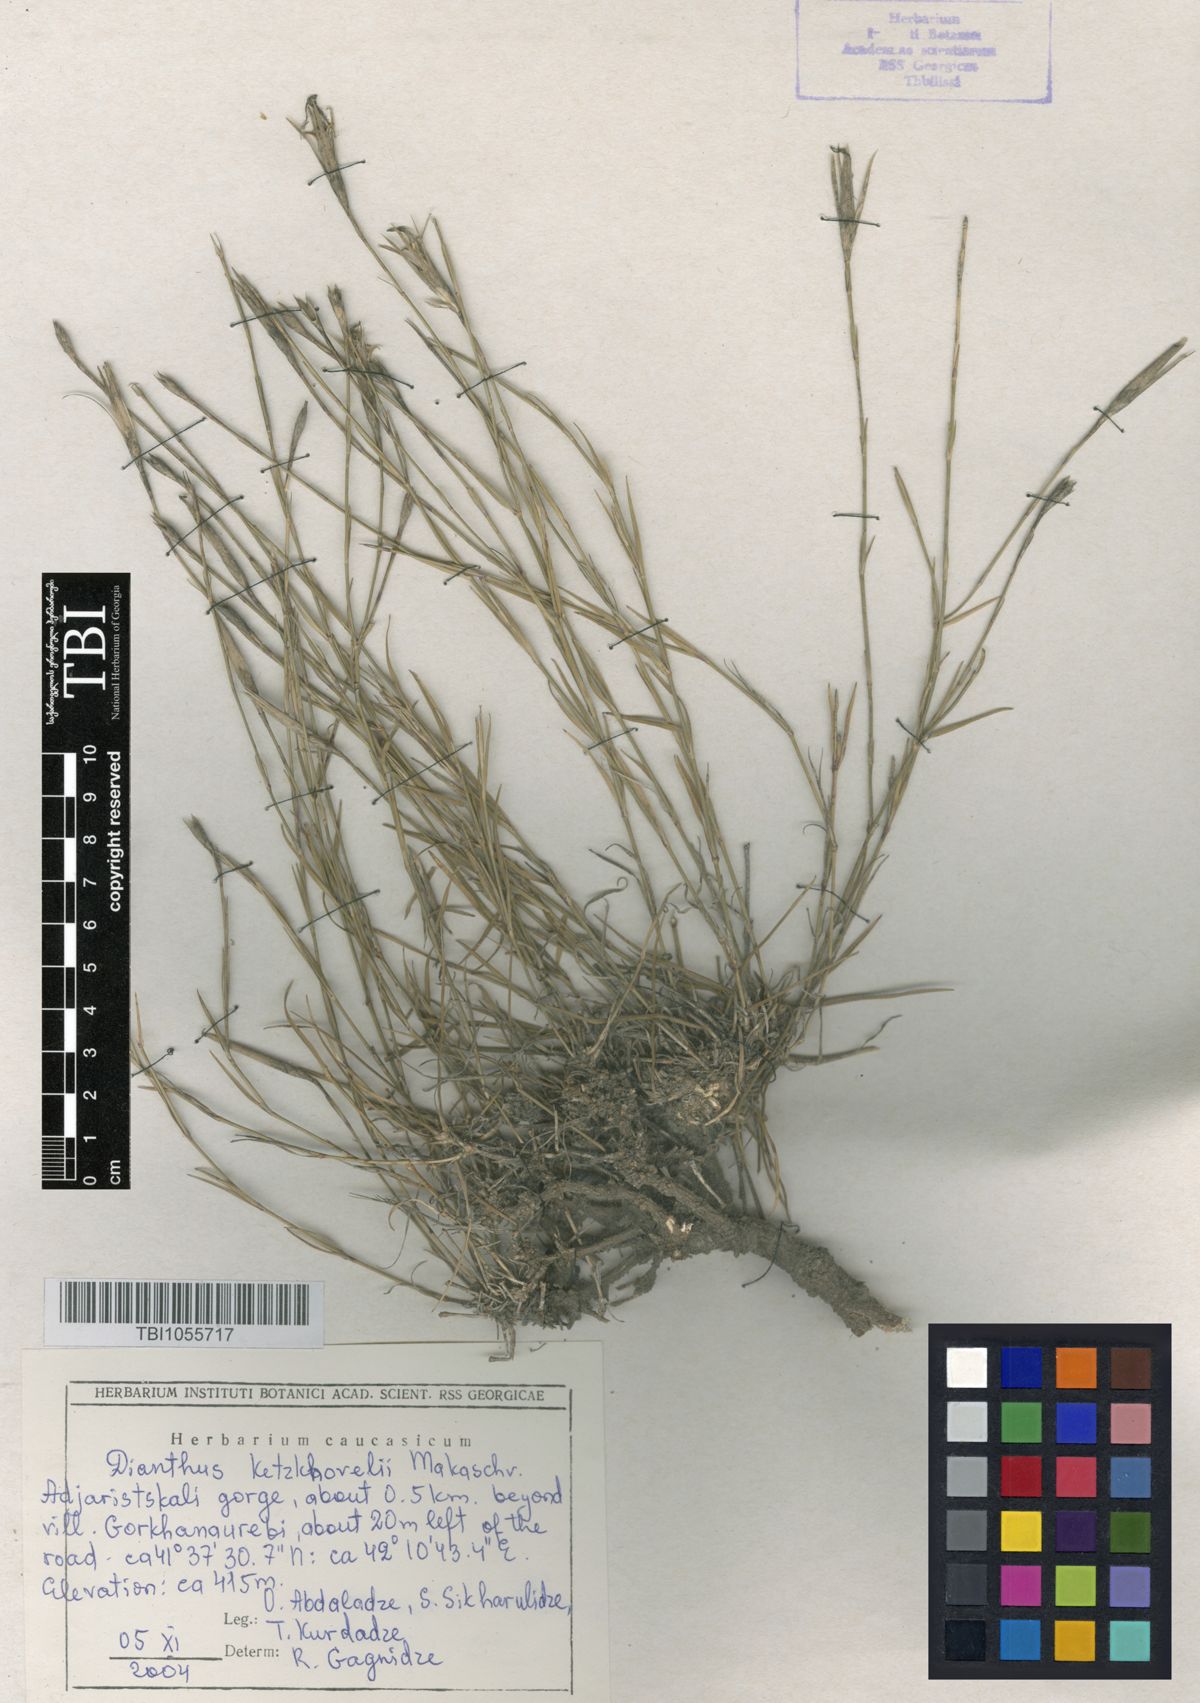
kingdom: Plantae
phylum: Tracheophyta
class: Magnoliopsida
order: Caryophyllales
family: Caryophyllaceae
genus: Dianthus
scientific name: Dianthus orientalis
